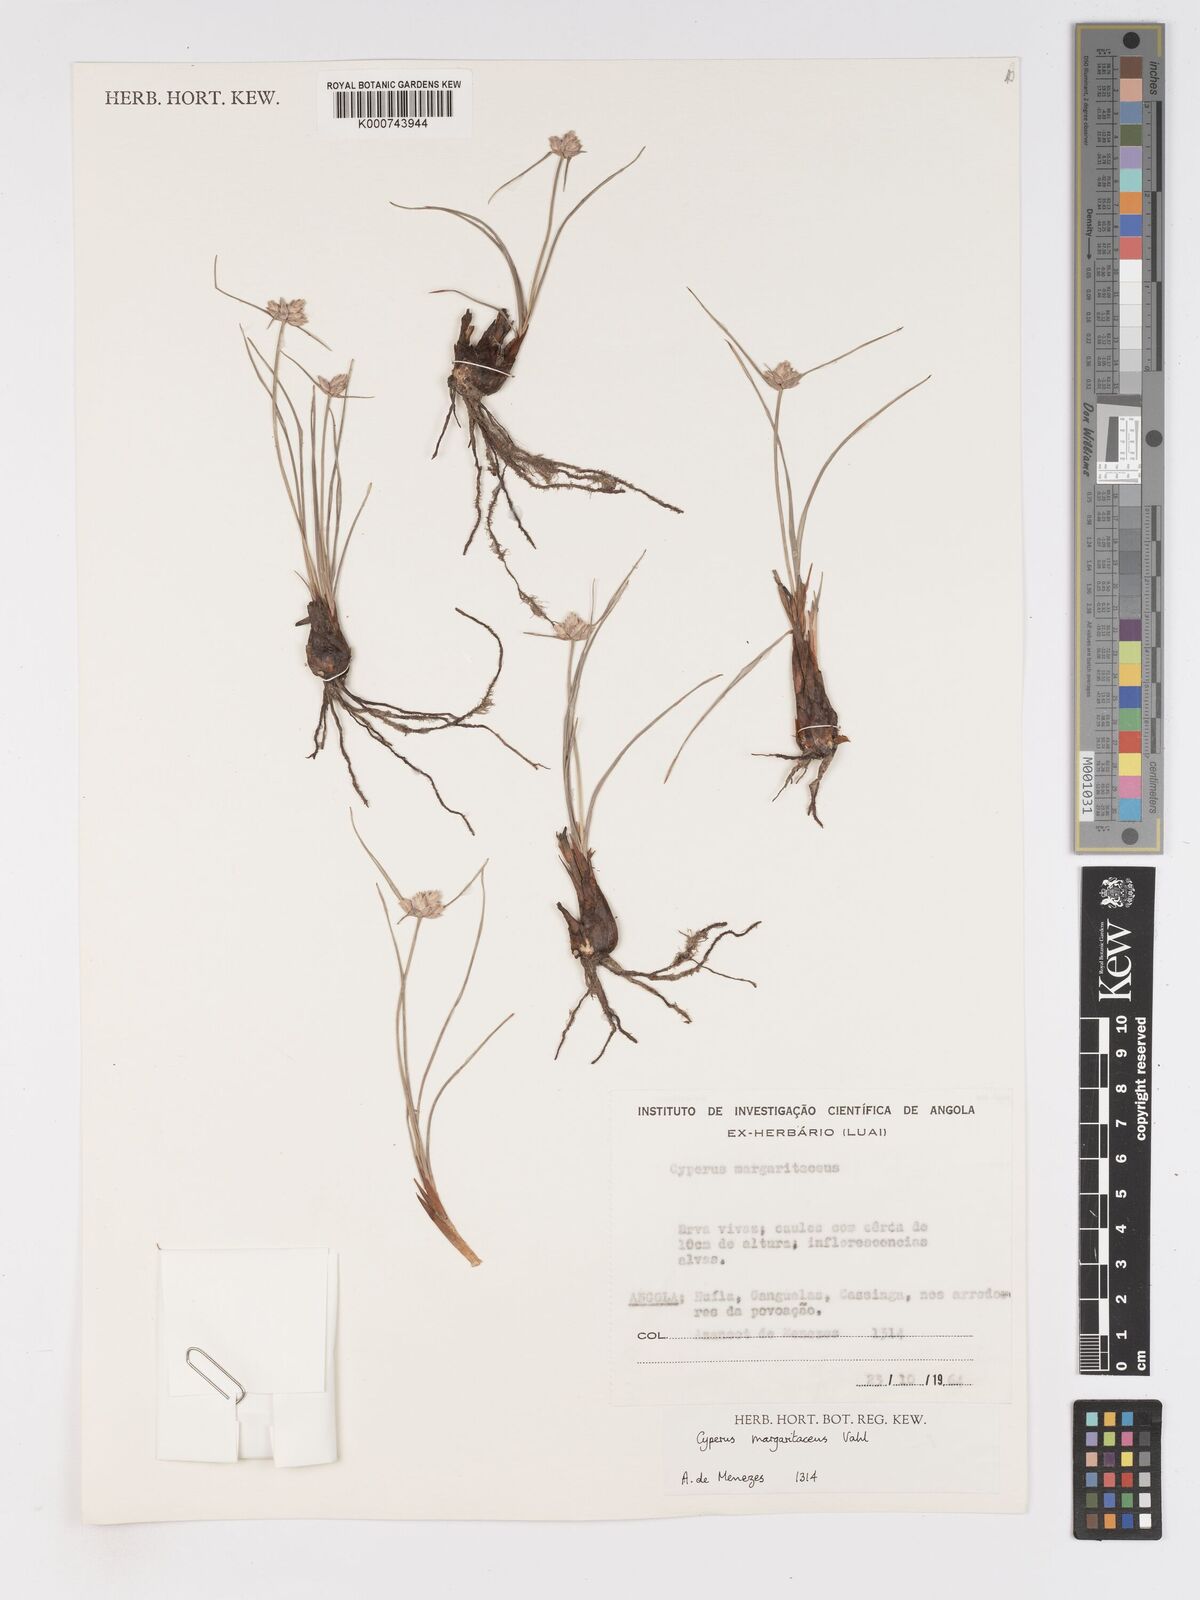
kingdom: Plantae
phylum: Tracheophyta
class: Liliopsida
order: Poales
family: Cyperaceae
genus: Cyperus
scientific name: Cyperus margaritaceus
